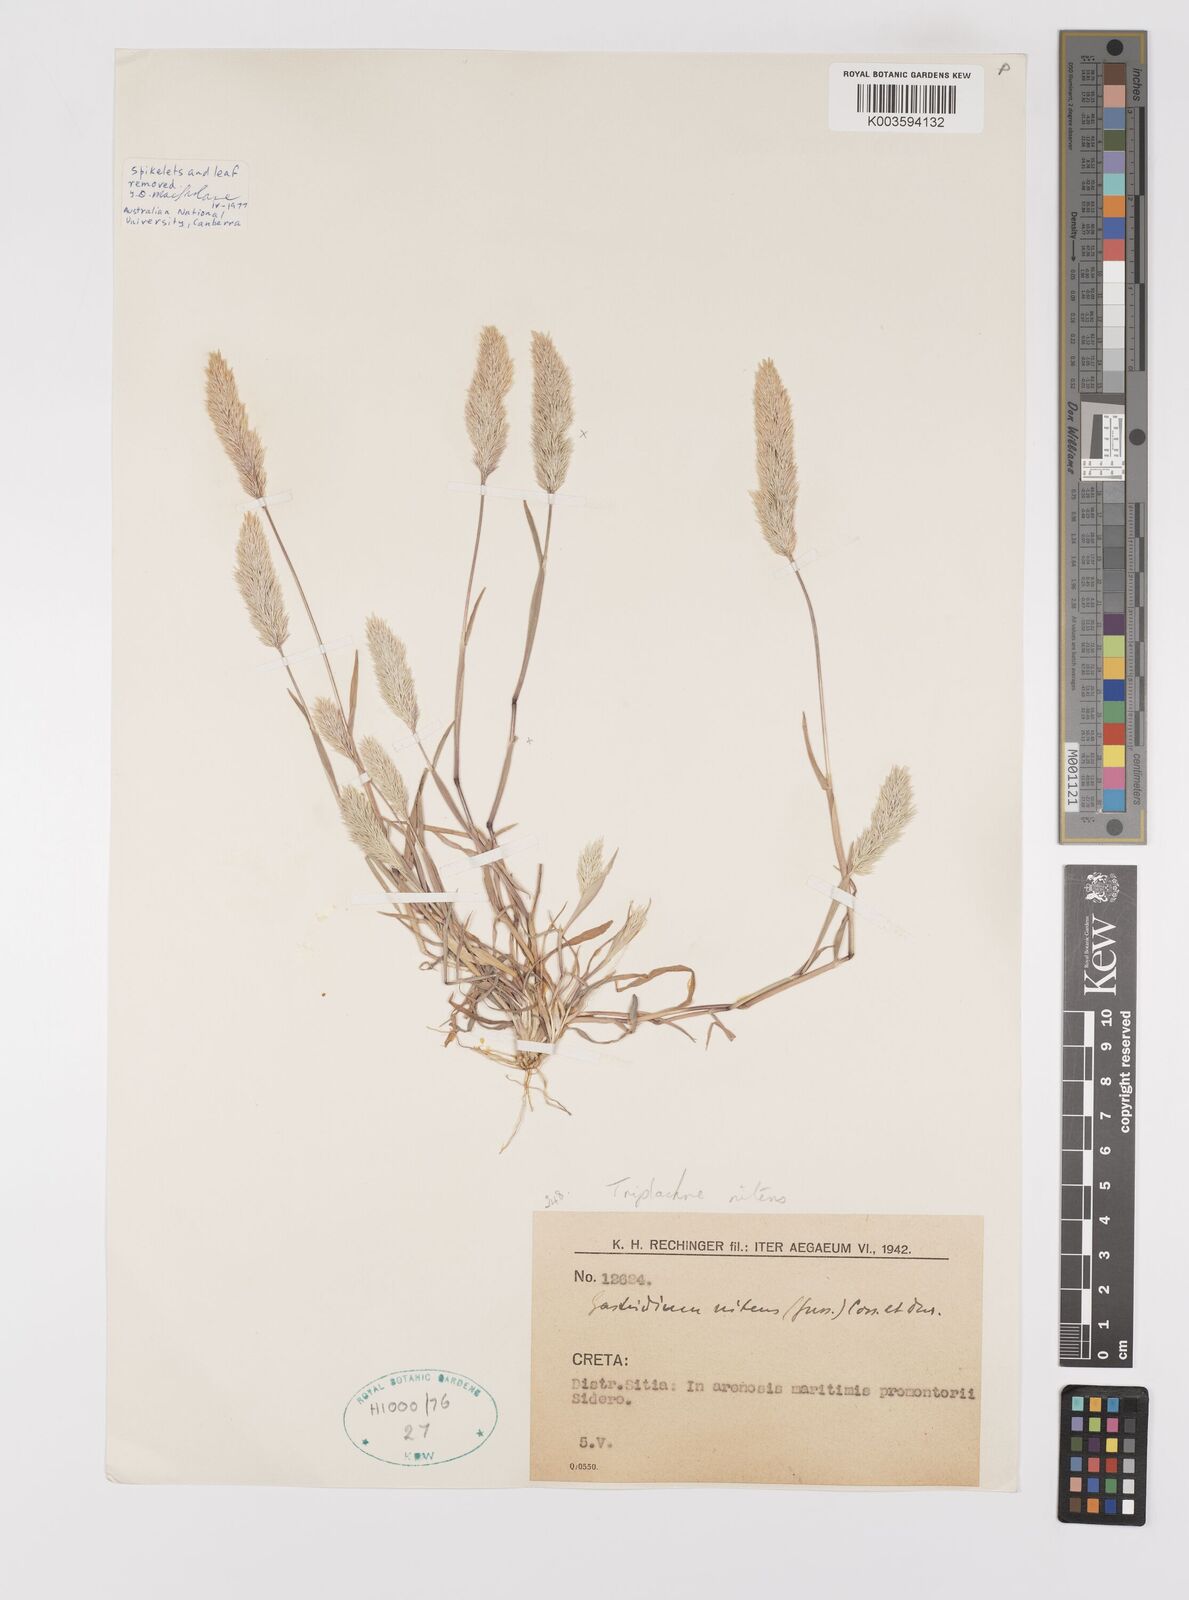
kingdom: Plantae
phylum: Tracheophyta
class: Liliopsida
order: Poales
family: Poaceae
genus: Triplachne
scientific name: Triplachne nitens
